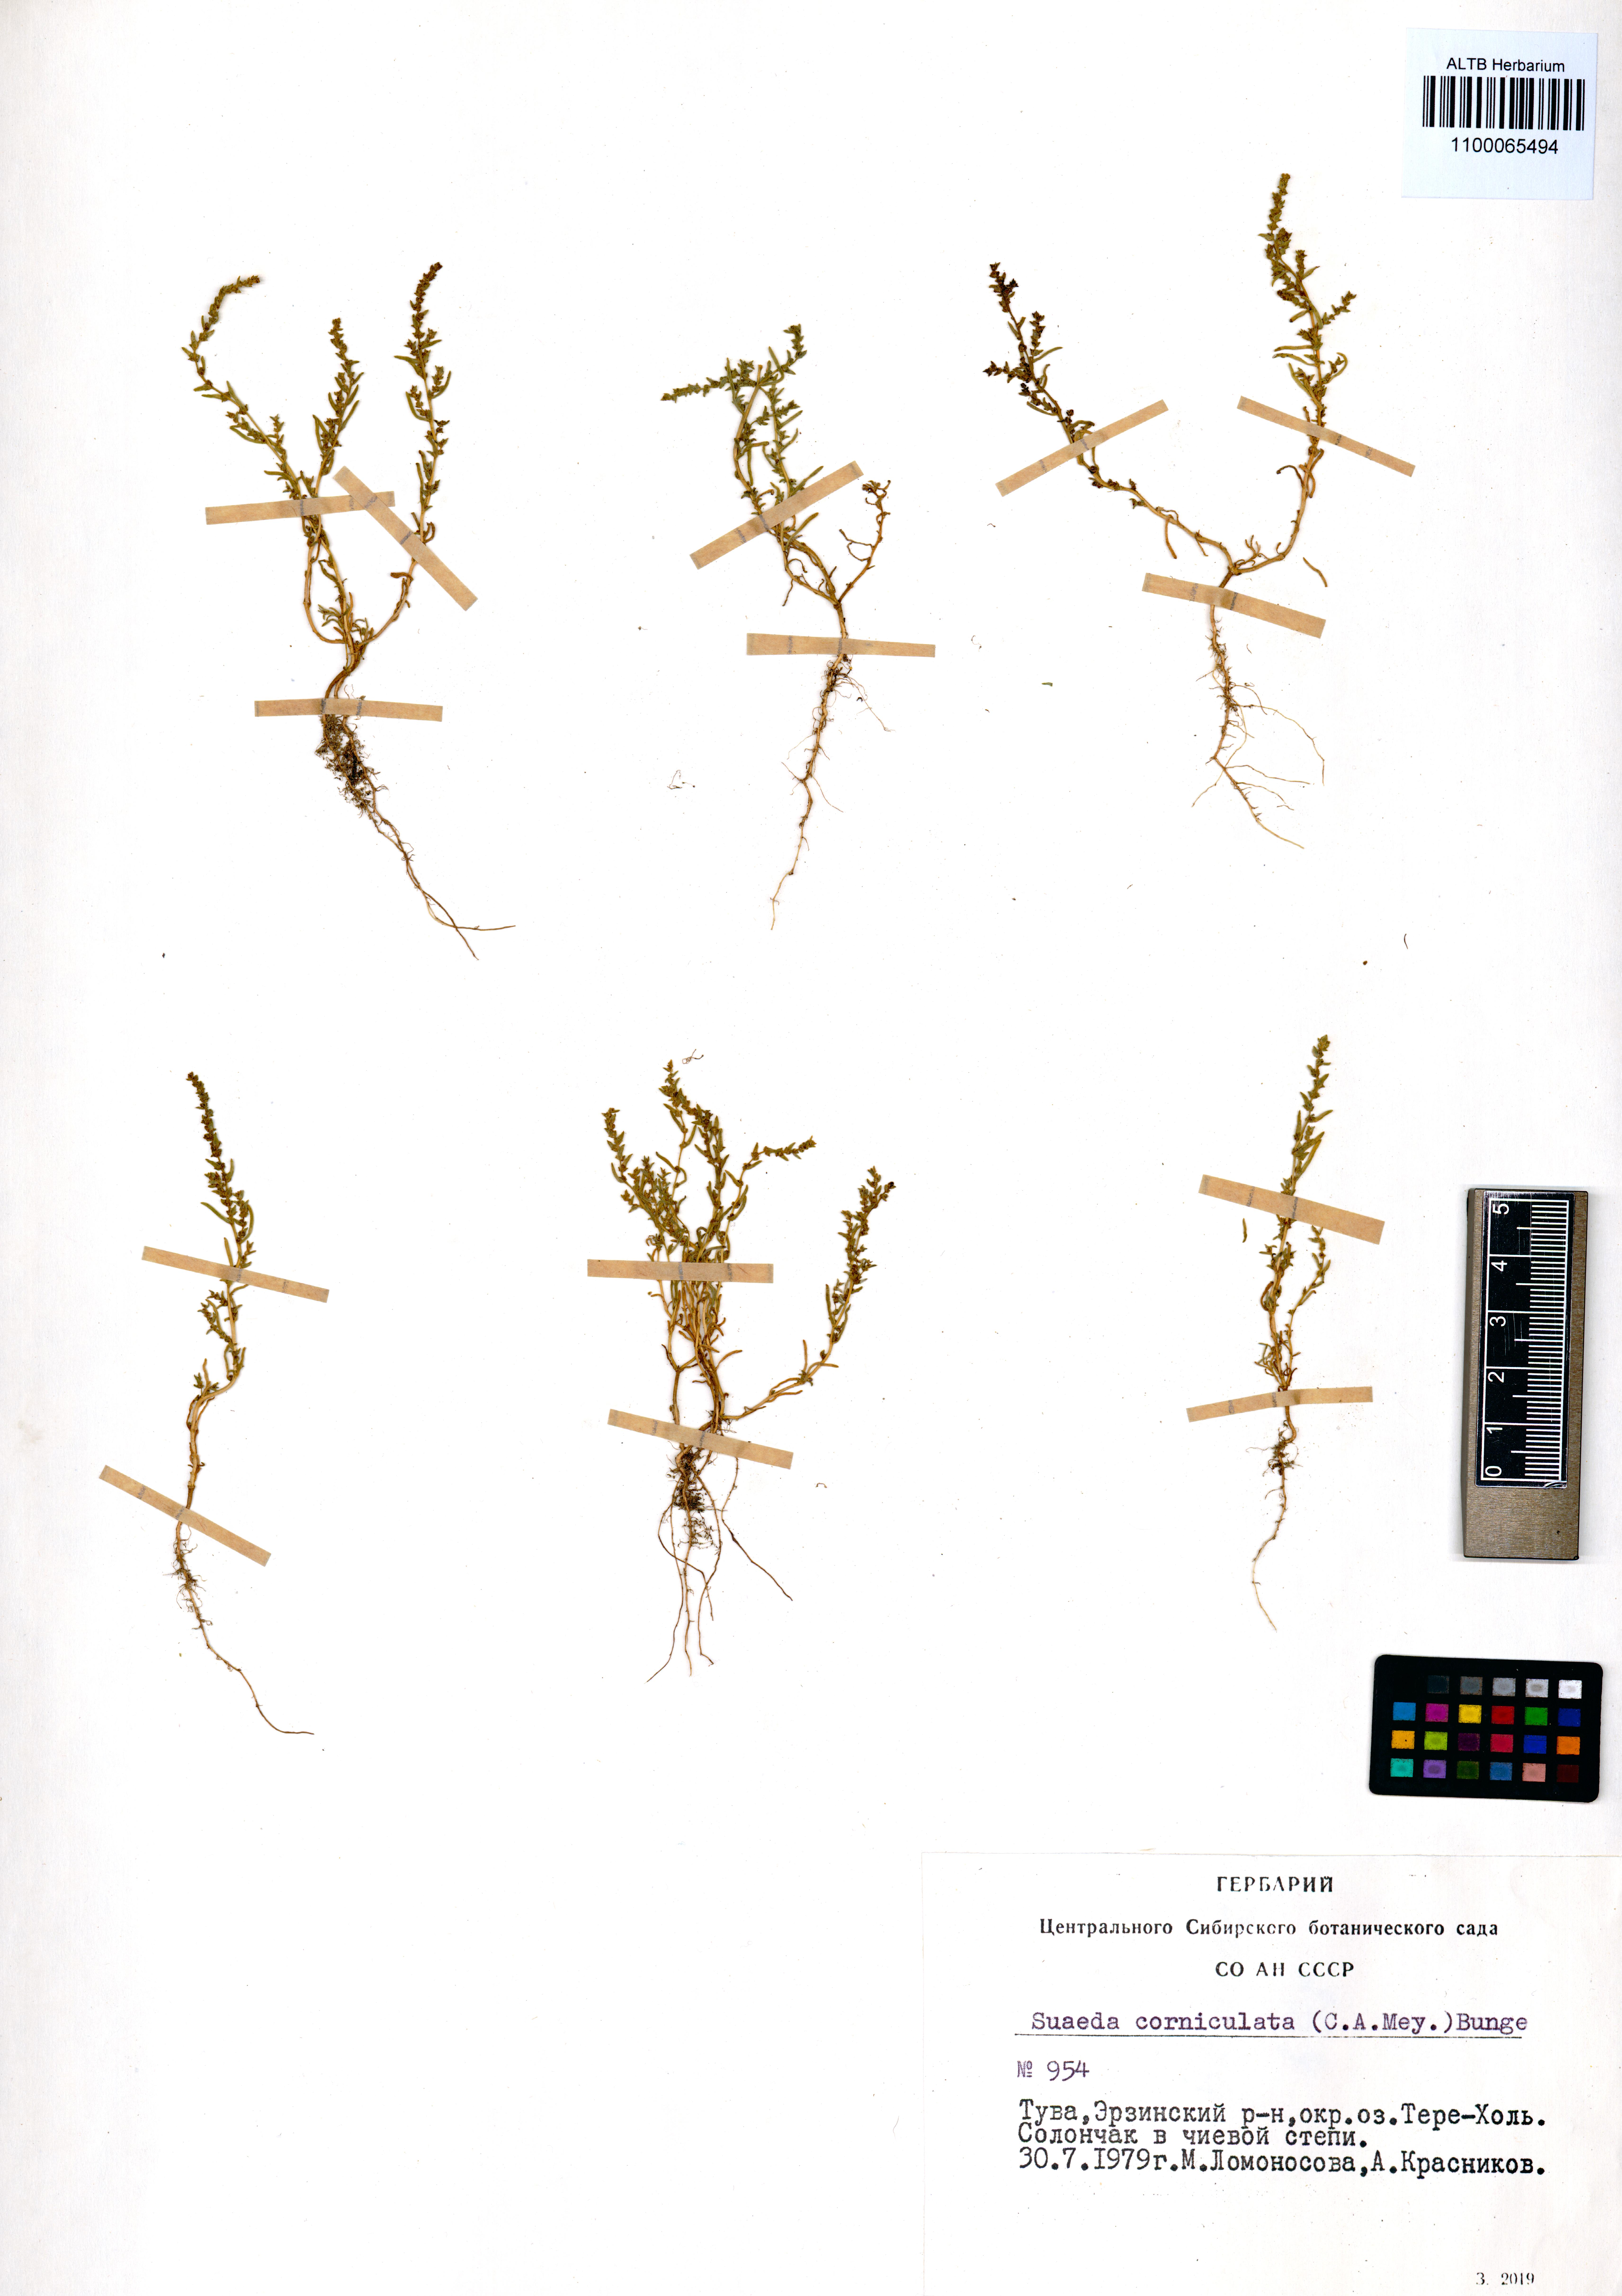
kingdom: Plantae
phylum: Tracheophyta
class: Magnoliopsida
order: Caryophyllales
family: Amaranthaceae
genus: Suaeda
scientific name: Suaeda corniculata
